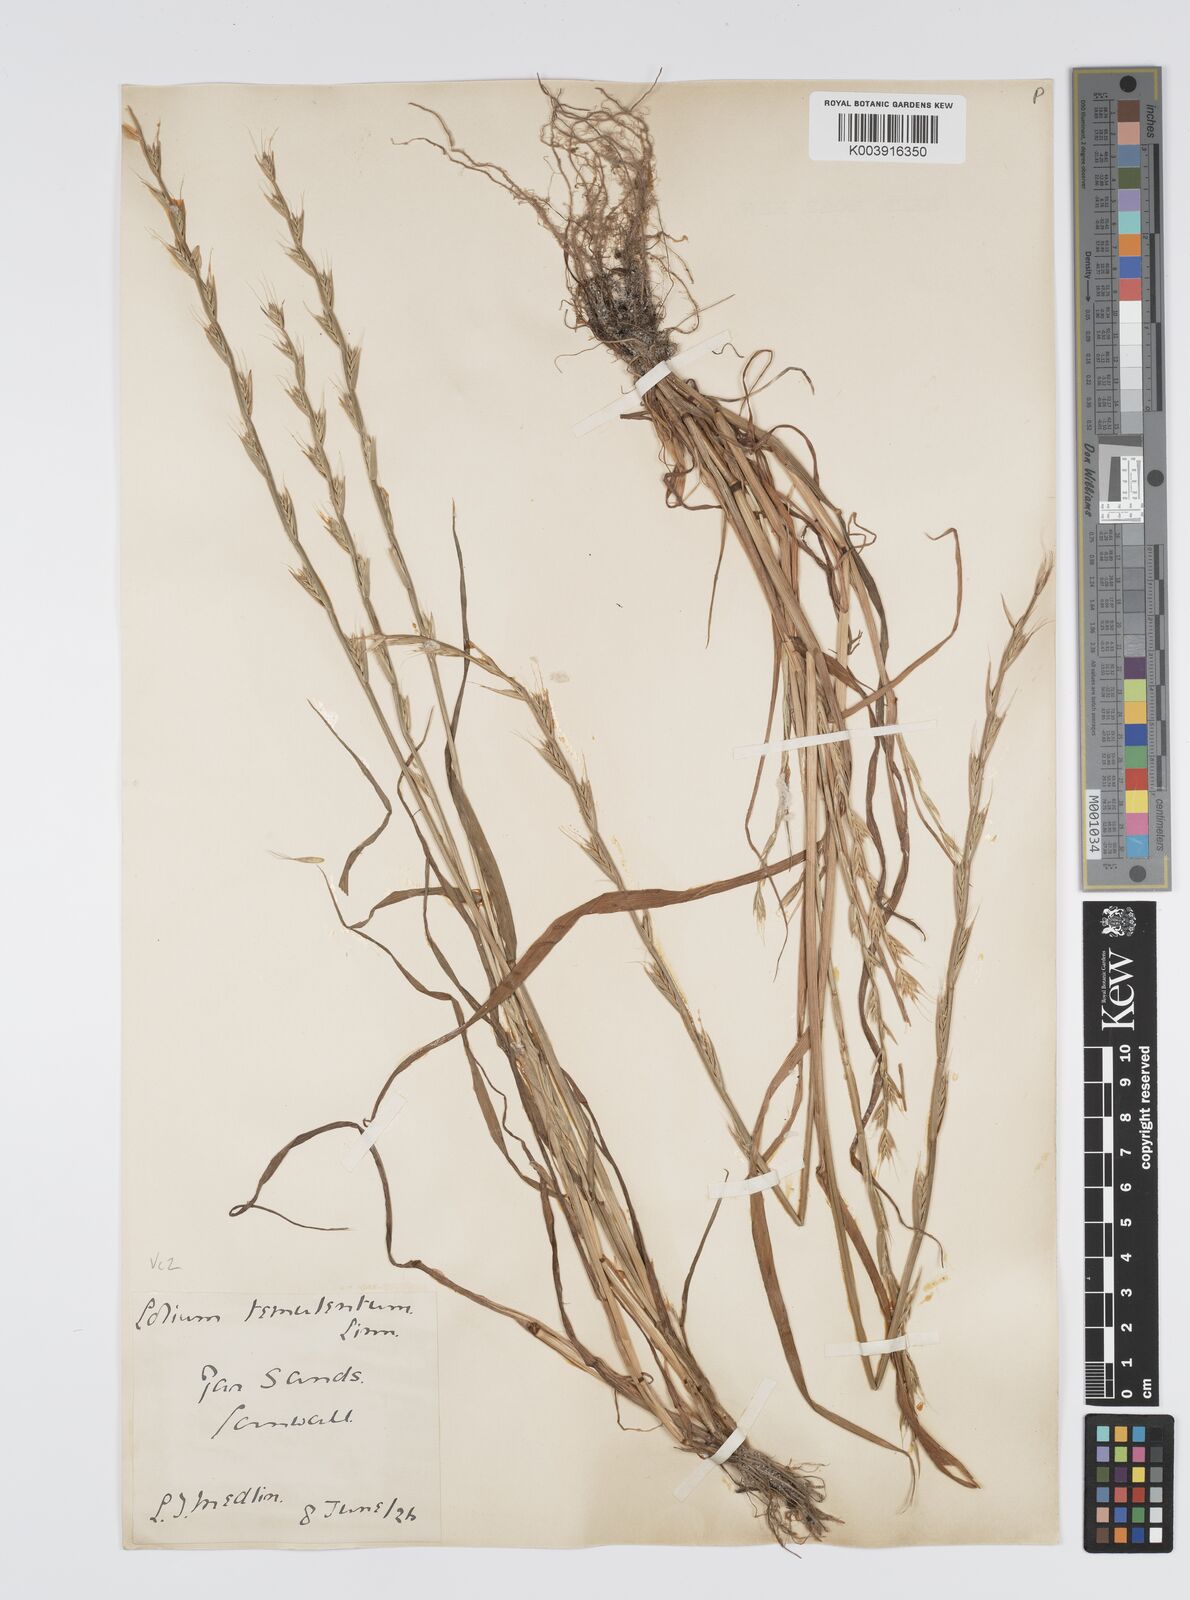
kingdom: Plantae
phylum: Tracheophyta
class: Liliopsida
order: Poales
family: Poaceae
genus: Lolium
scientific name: Lolium temulentum
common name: Darnel
